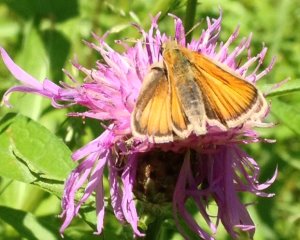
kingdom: Animalia
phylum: Arthropoda
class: Insecta
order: Lepidoptera
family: Hesperiidae
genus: Thymelicus
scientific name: Thymelicus lineola
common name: European Skipper
